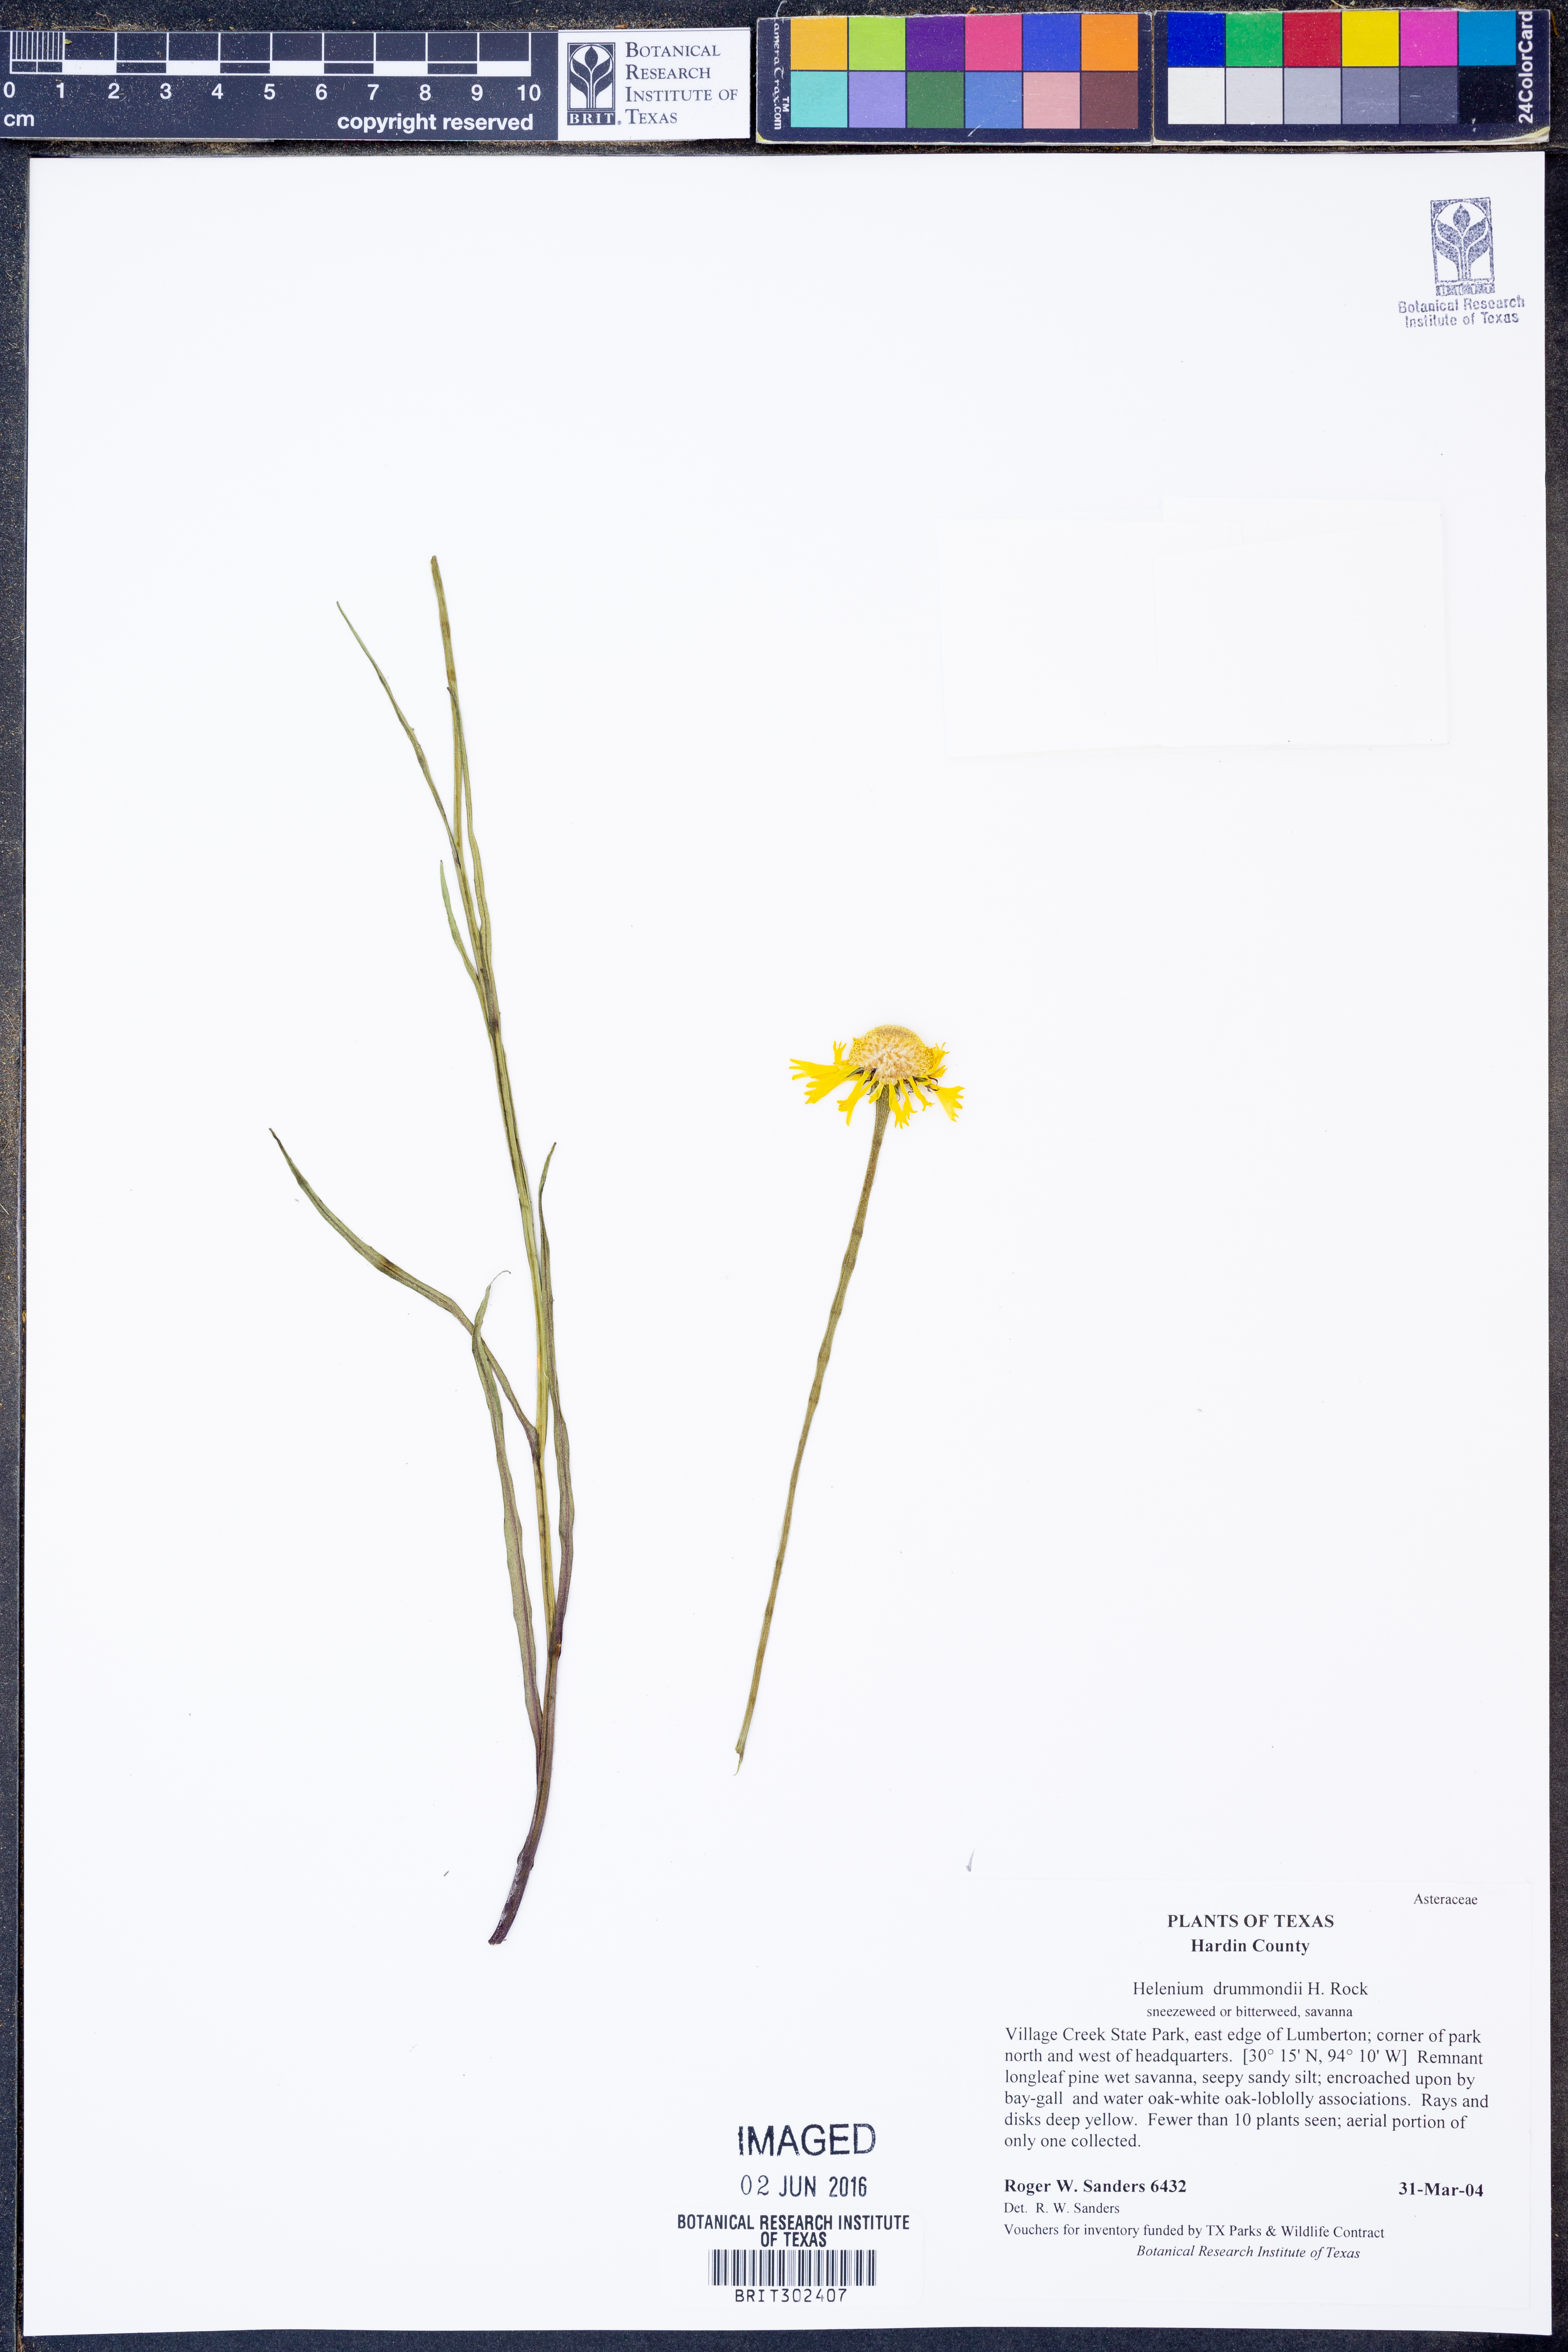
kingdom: Plantae
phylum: Tracheophyta
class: Magnoliopsida
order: Asterales
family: Asteraceae
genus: Helenium
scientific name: Helenium drummondii
